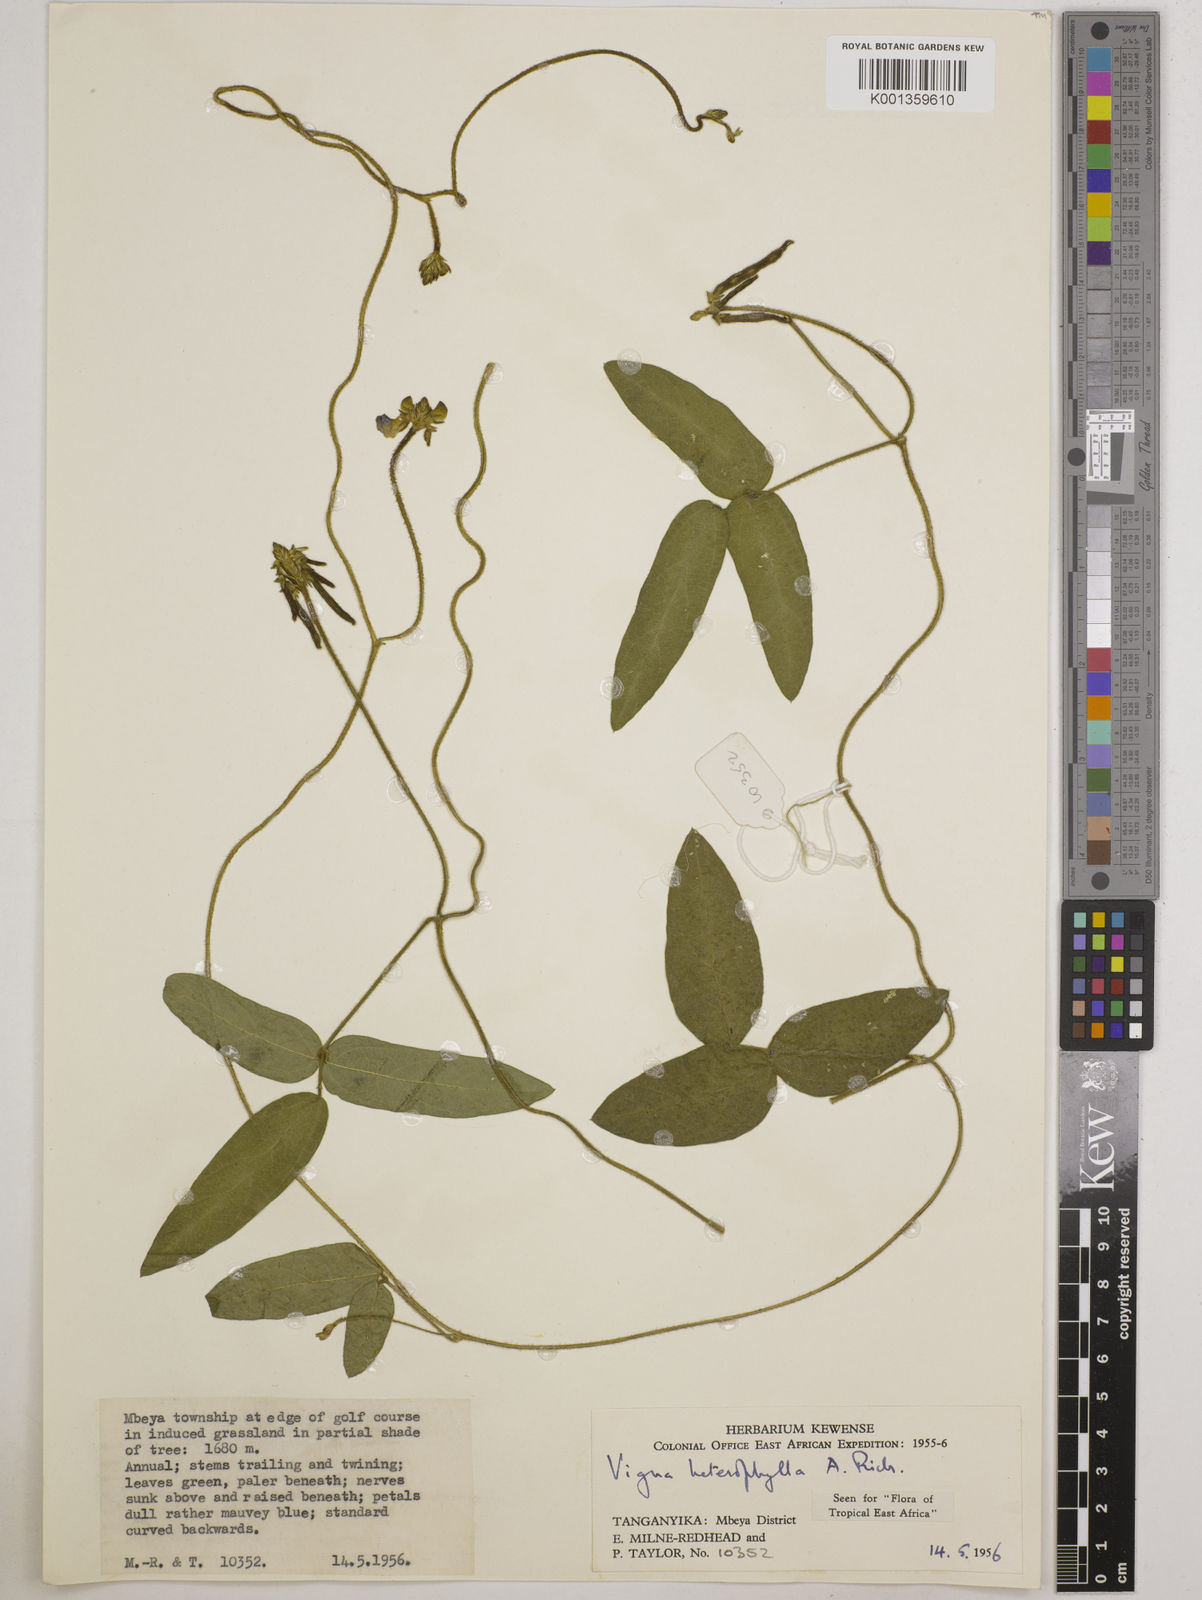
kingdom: Plantae
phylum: Tracheophyta
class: Magnoliopsida
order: Fabales
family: Fabaceae
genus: Vigna
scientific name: Vigna heterophylla
